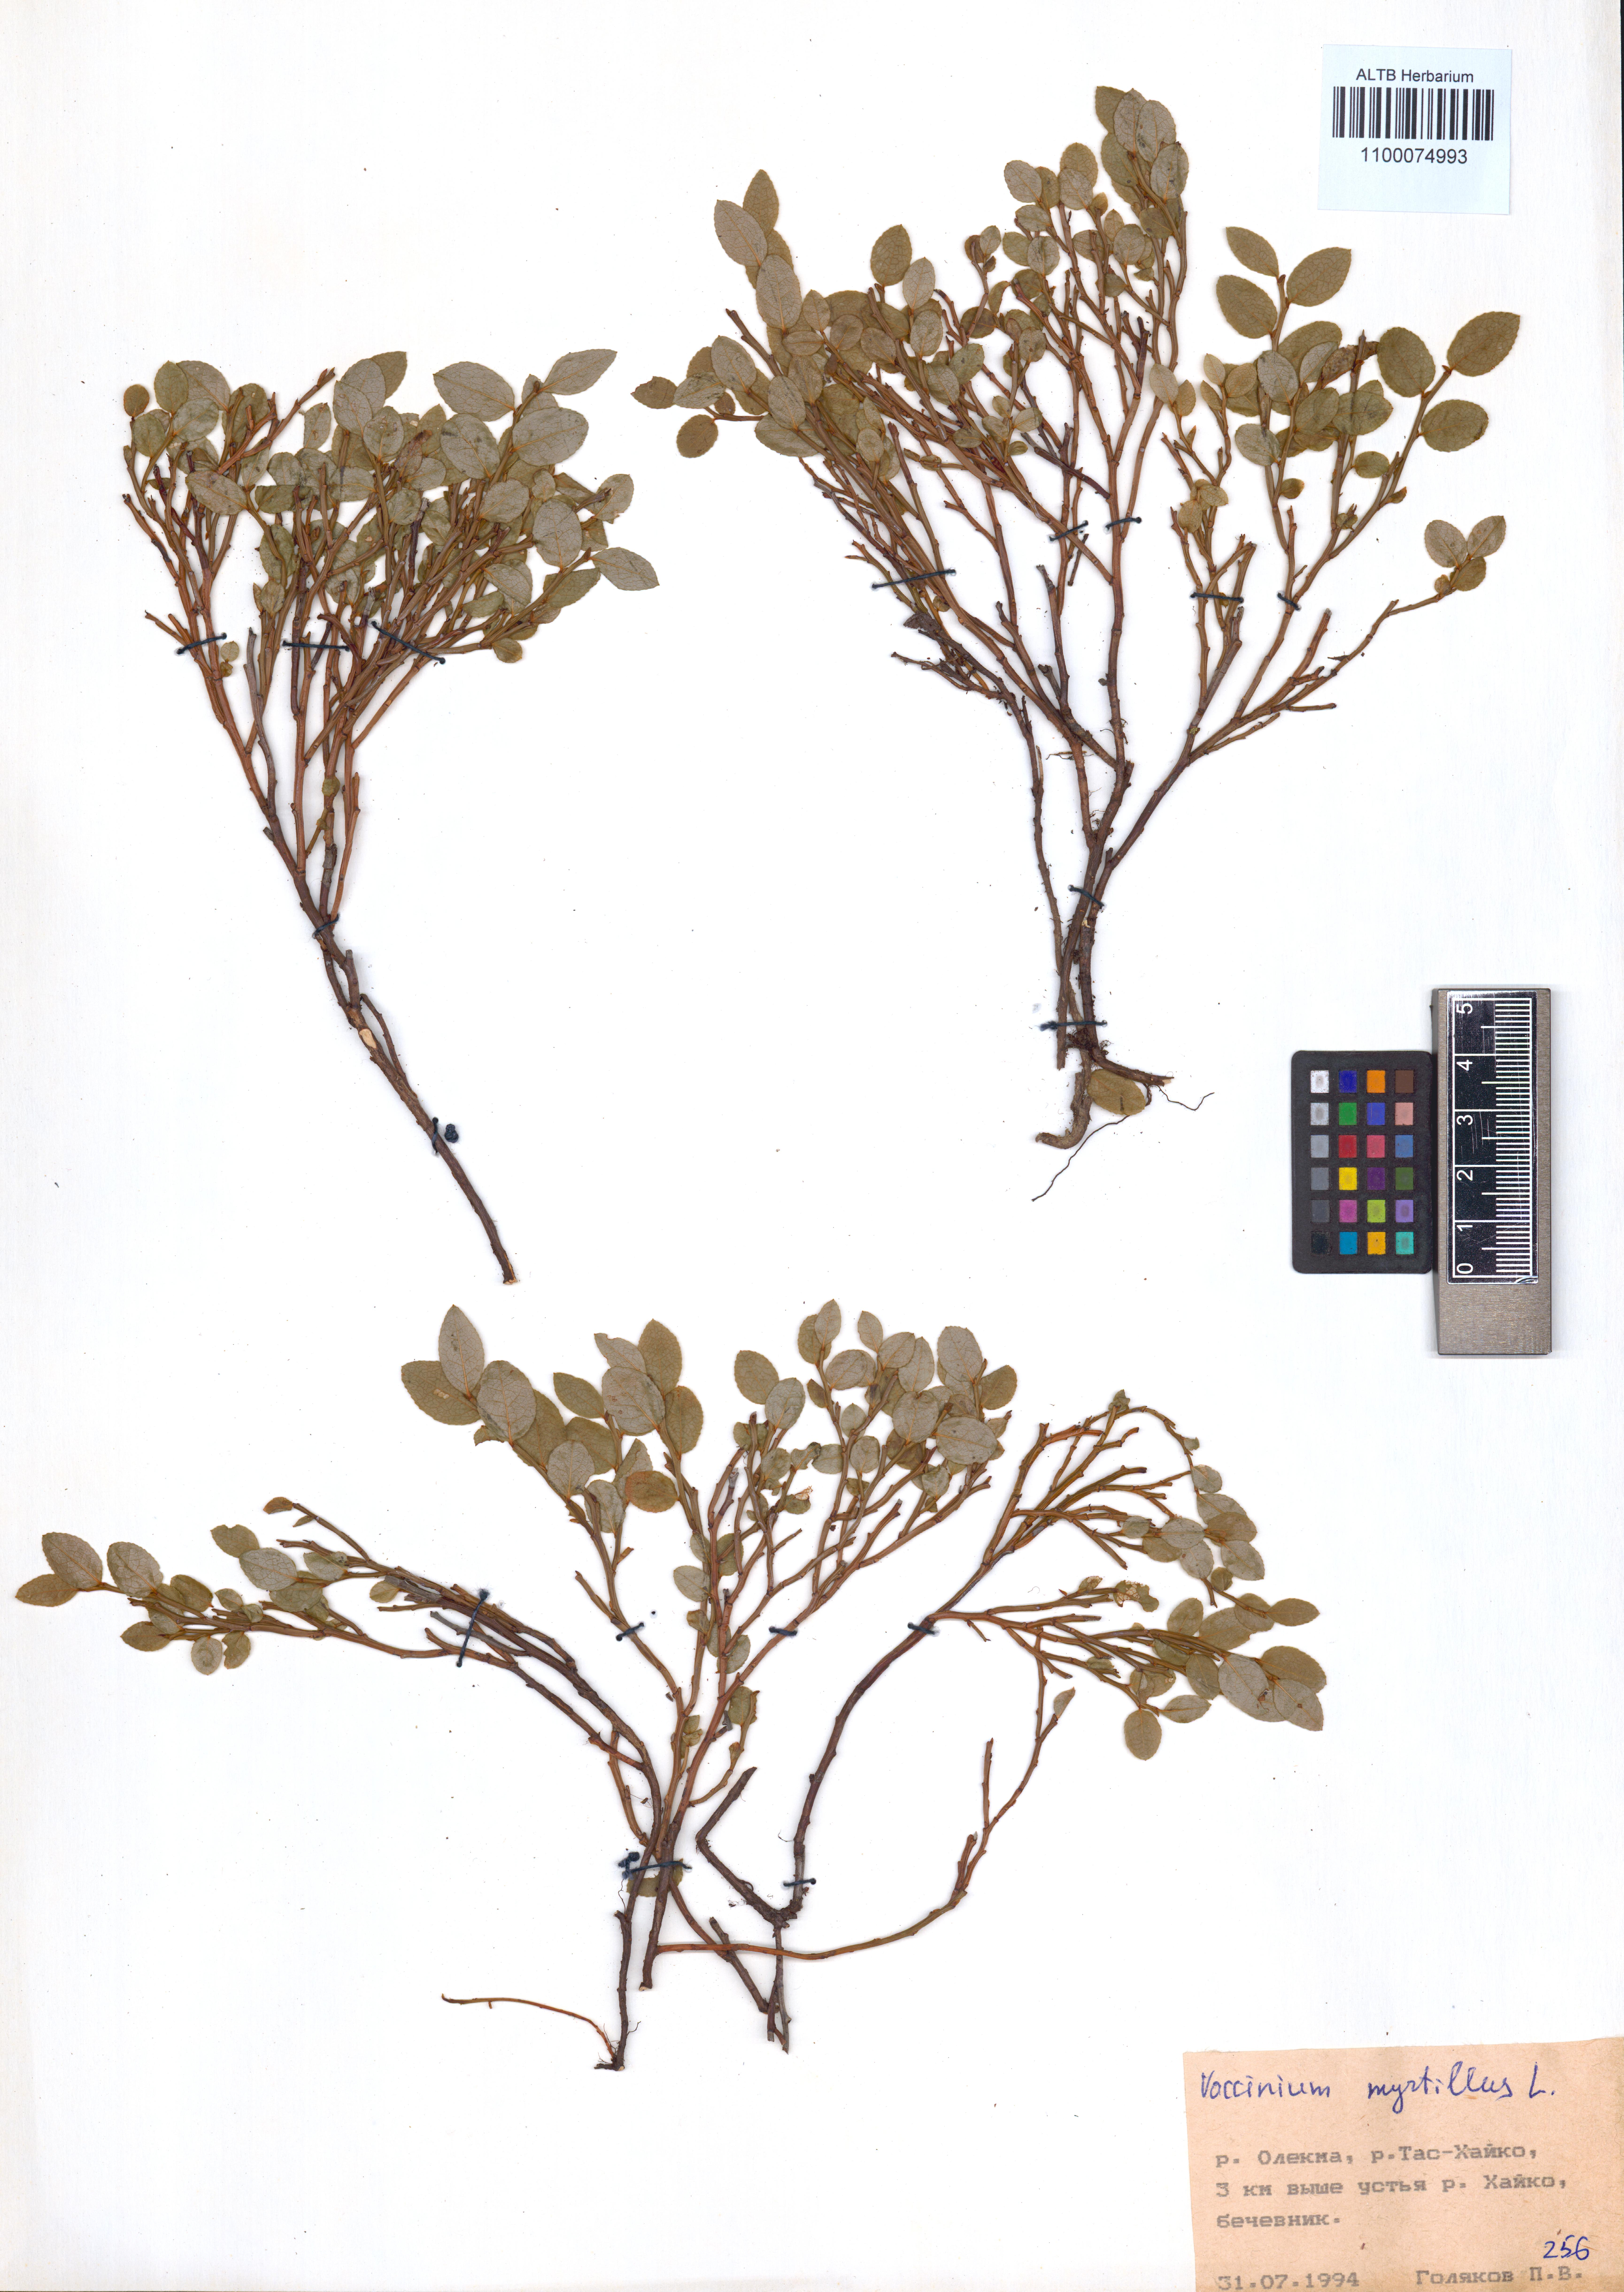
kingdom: Plantae
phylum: Tracheophyta
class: Magnoliopsida
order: Ericales
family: Ericaceae
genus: Vaccinium
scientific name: Vaccinium myrtillus
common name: Bilberry
